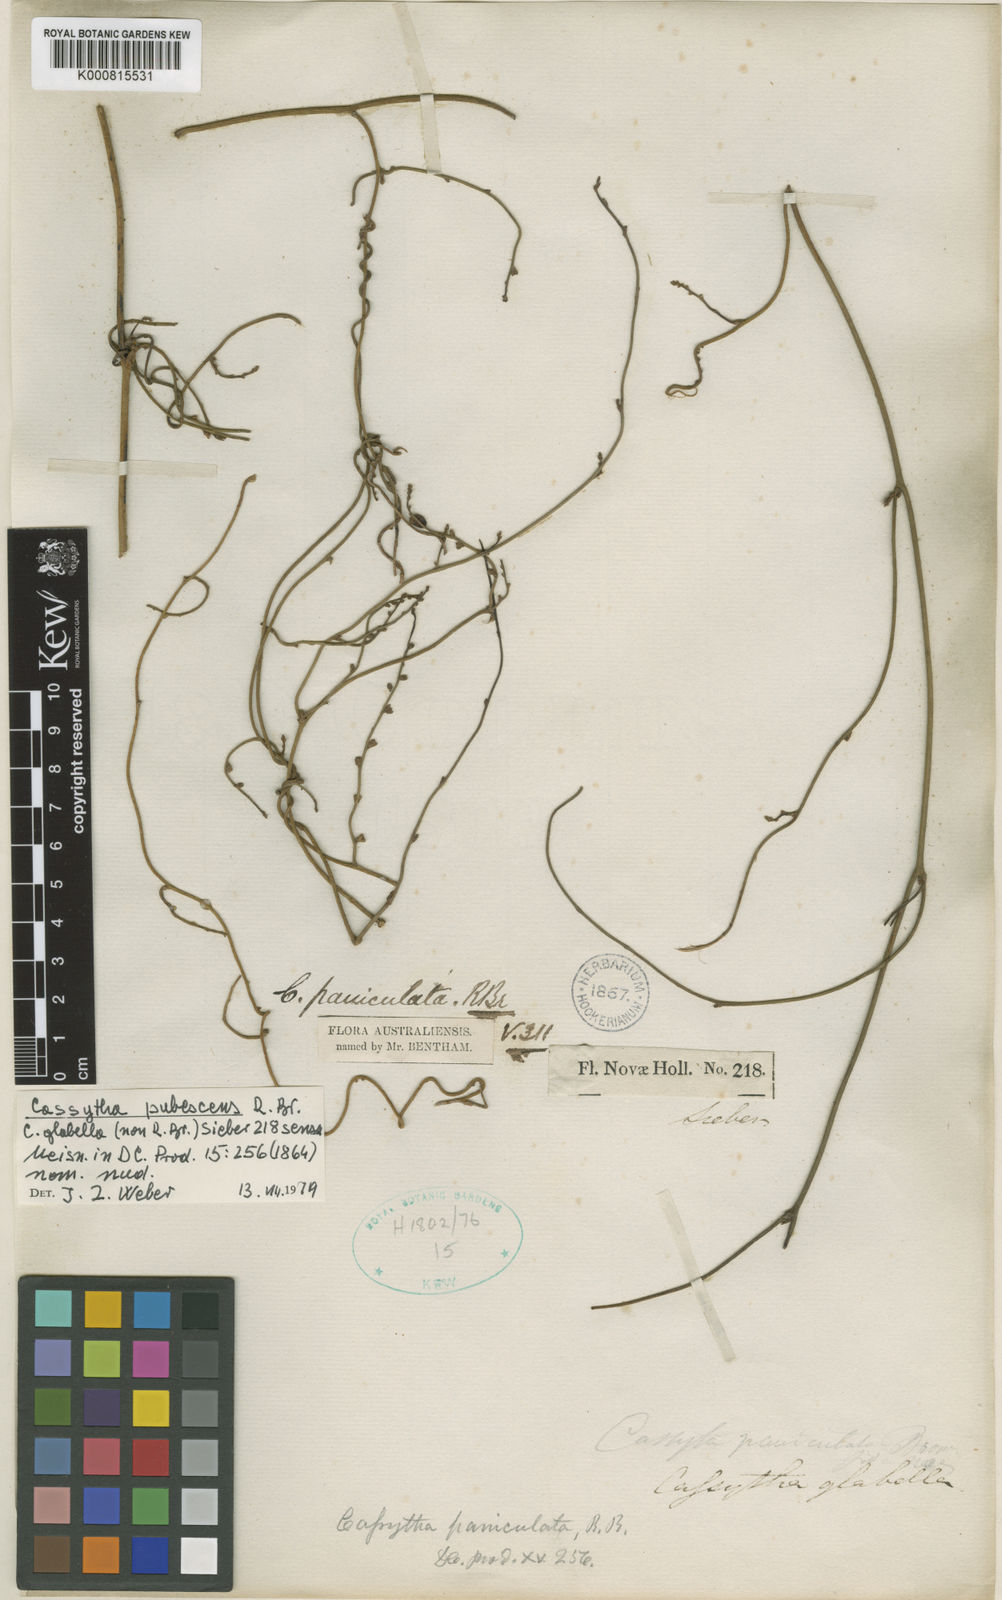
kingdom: Plantae
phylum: Tracheophyta
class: Magnoliopsida
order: Laurales
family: Lauraceae
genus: Cassytha
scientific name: Cassytha pubescens
